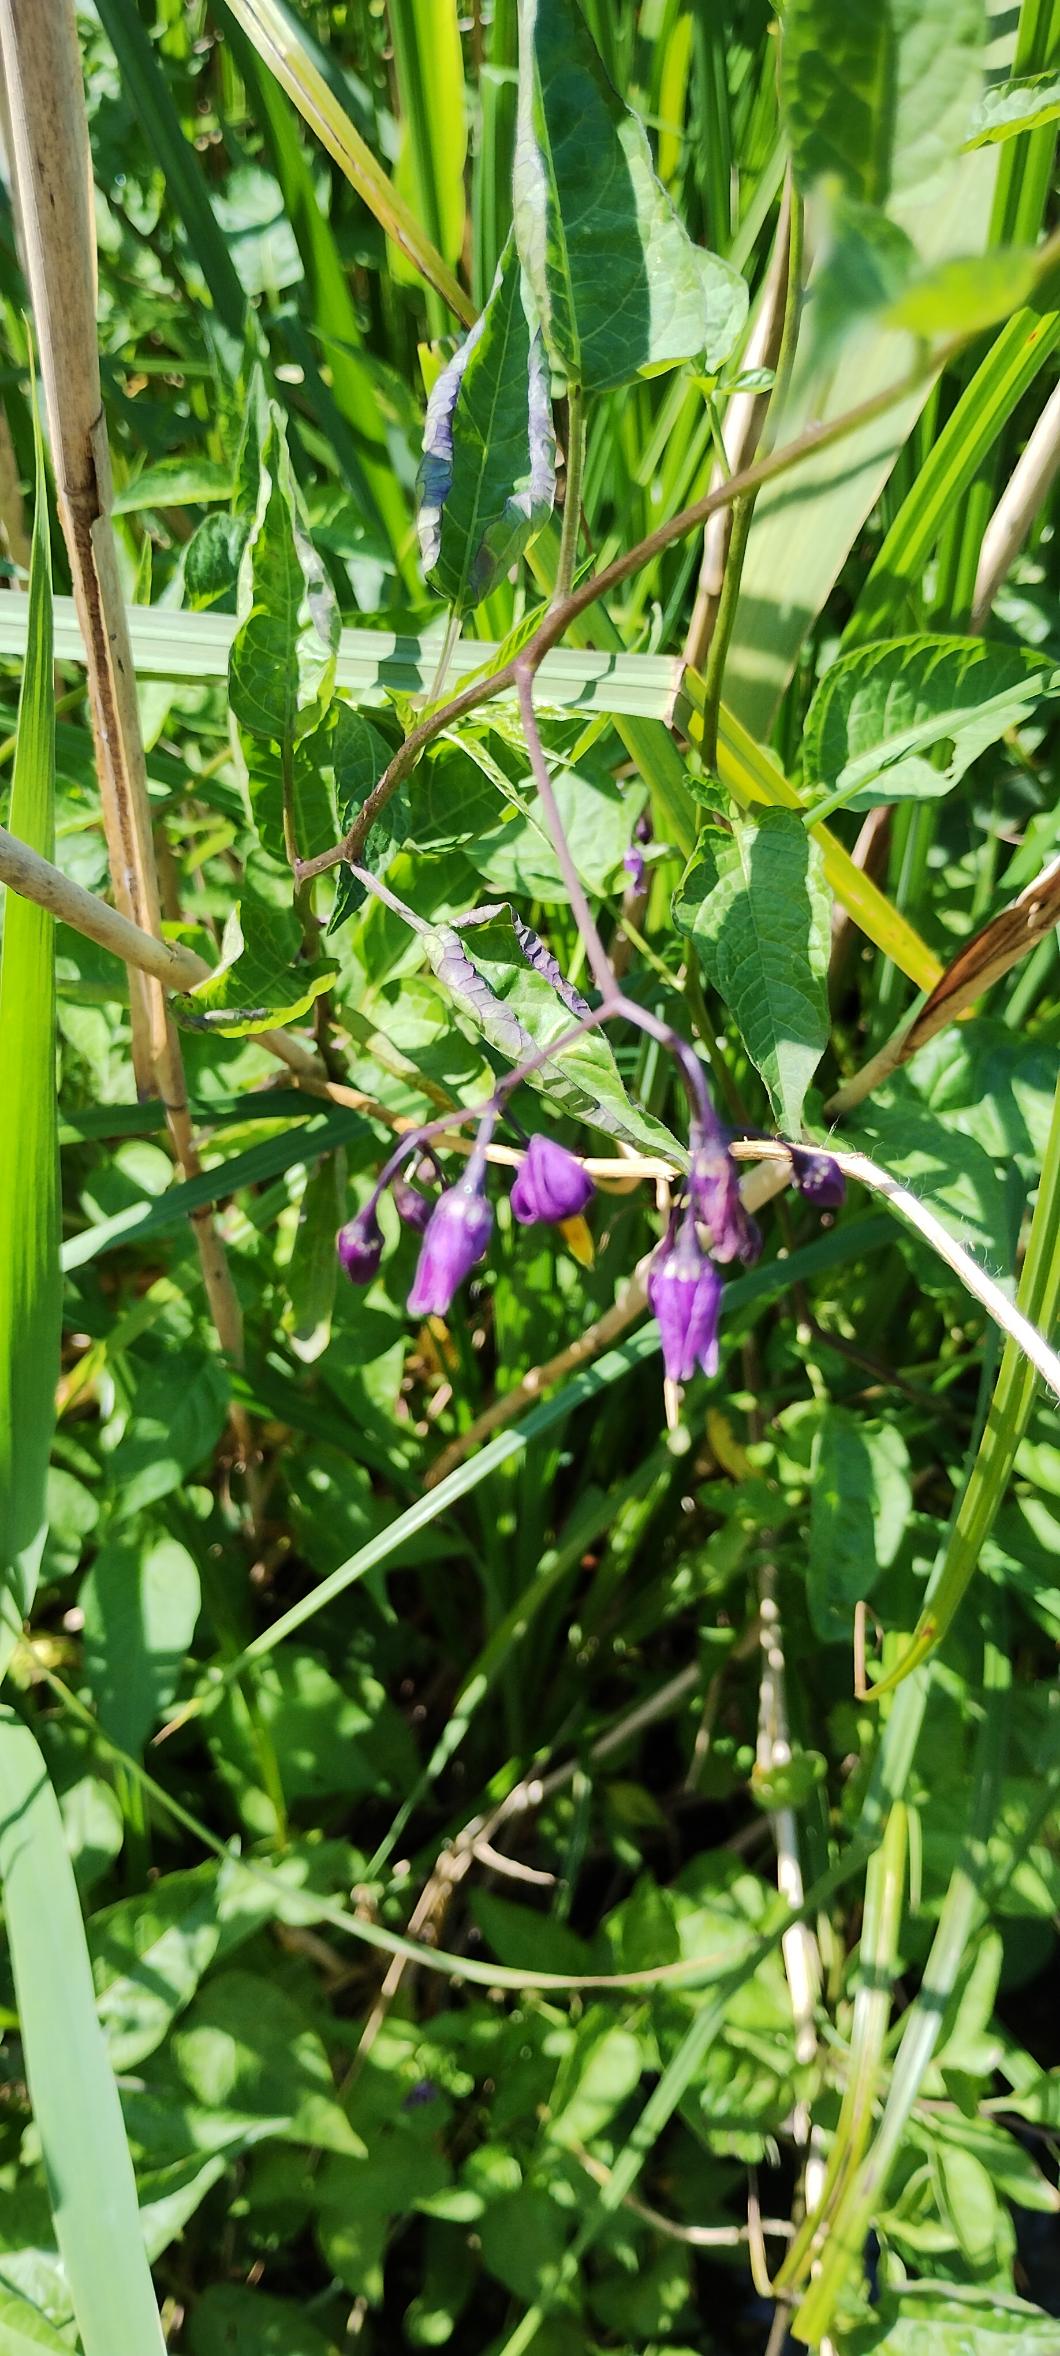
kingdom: Plantae
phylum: Tracheophyta
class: Magnoliopsida
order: Solanales
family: Solanaceae
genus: Solanum
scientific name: Solanum dulcamara
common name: Bittersød natskygge
